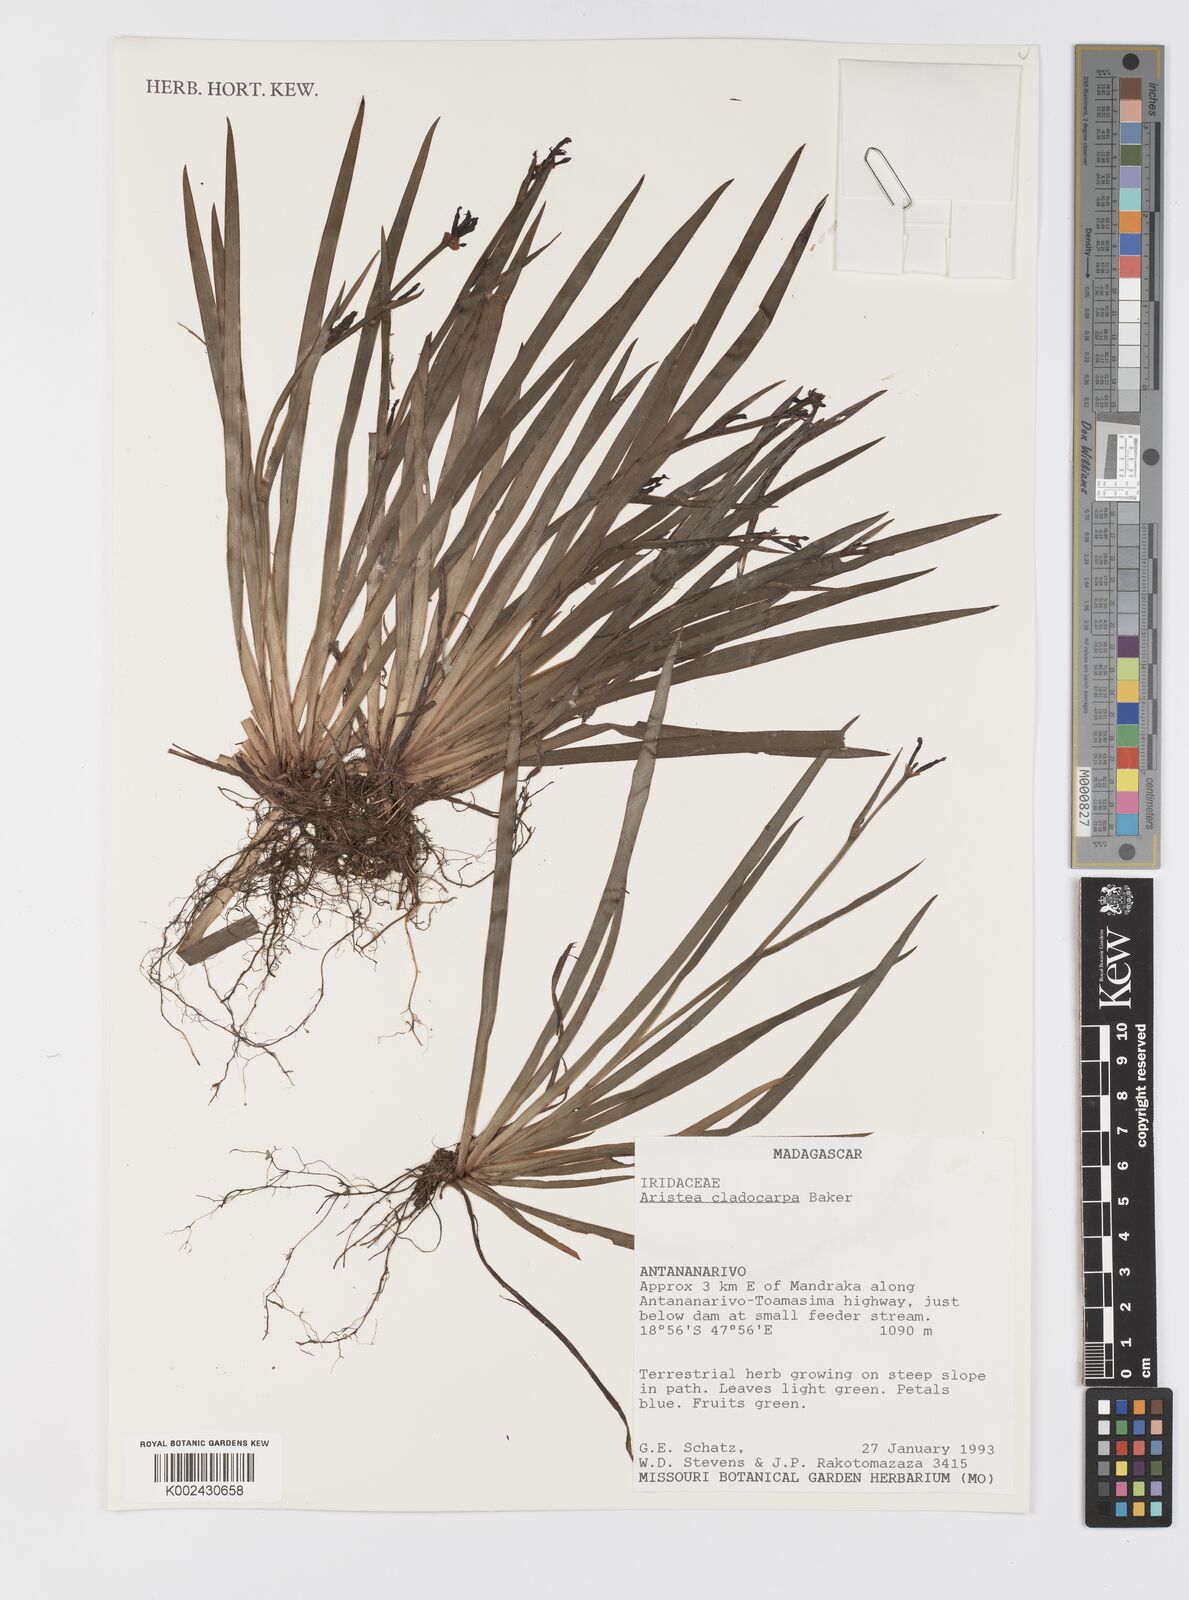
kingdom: Plantae
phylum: Tracheophyta
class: Liliopsida
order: Asparagales
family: Iridaceae
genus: Aristea
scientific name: Aristea cladocarpa
